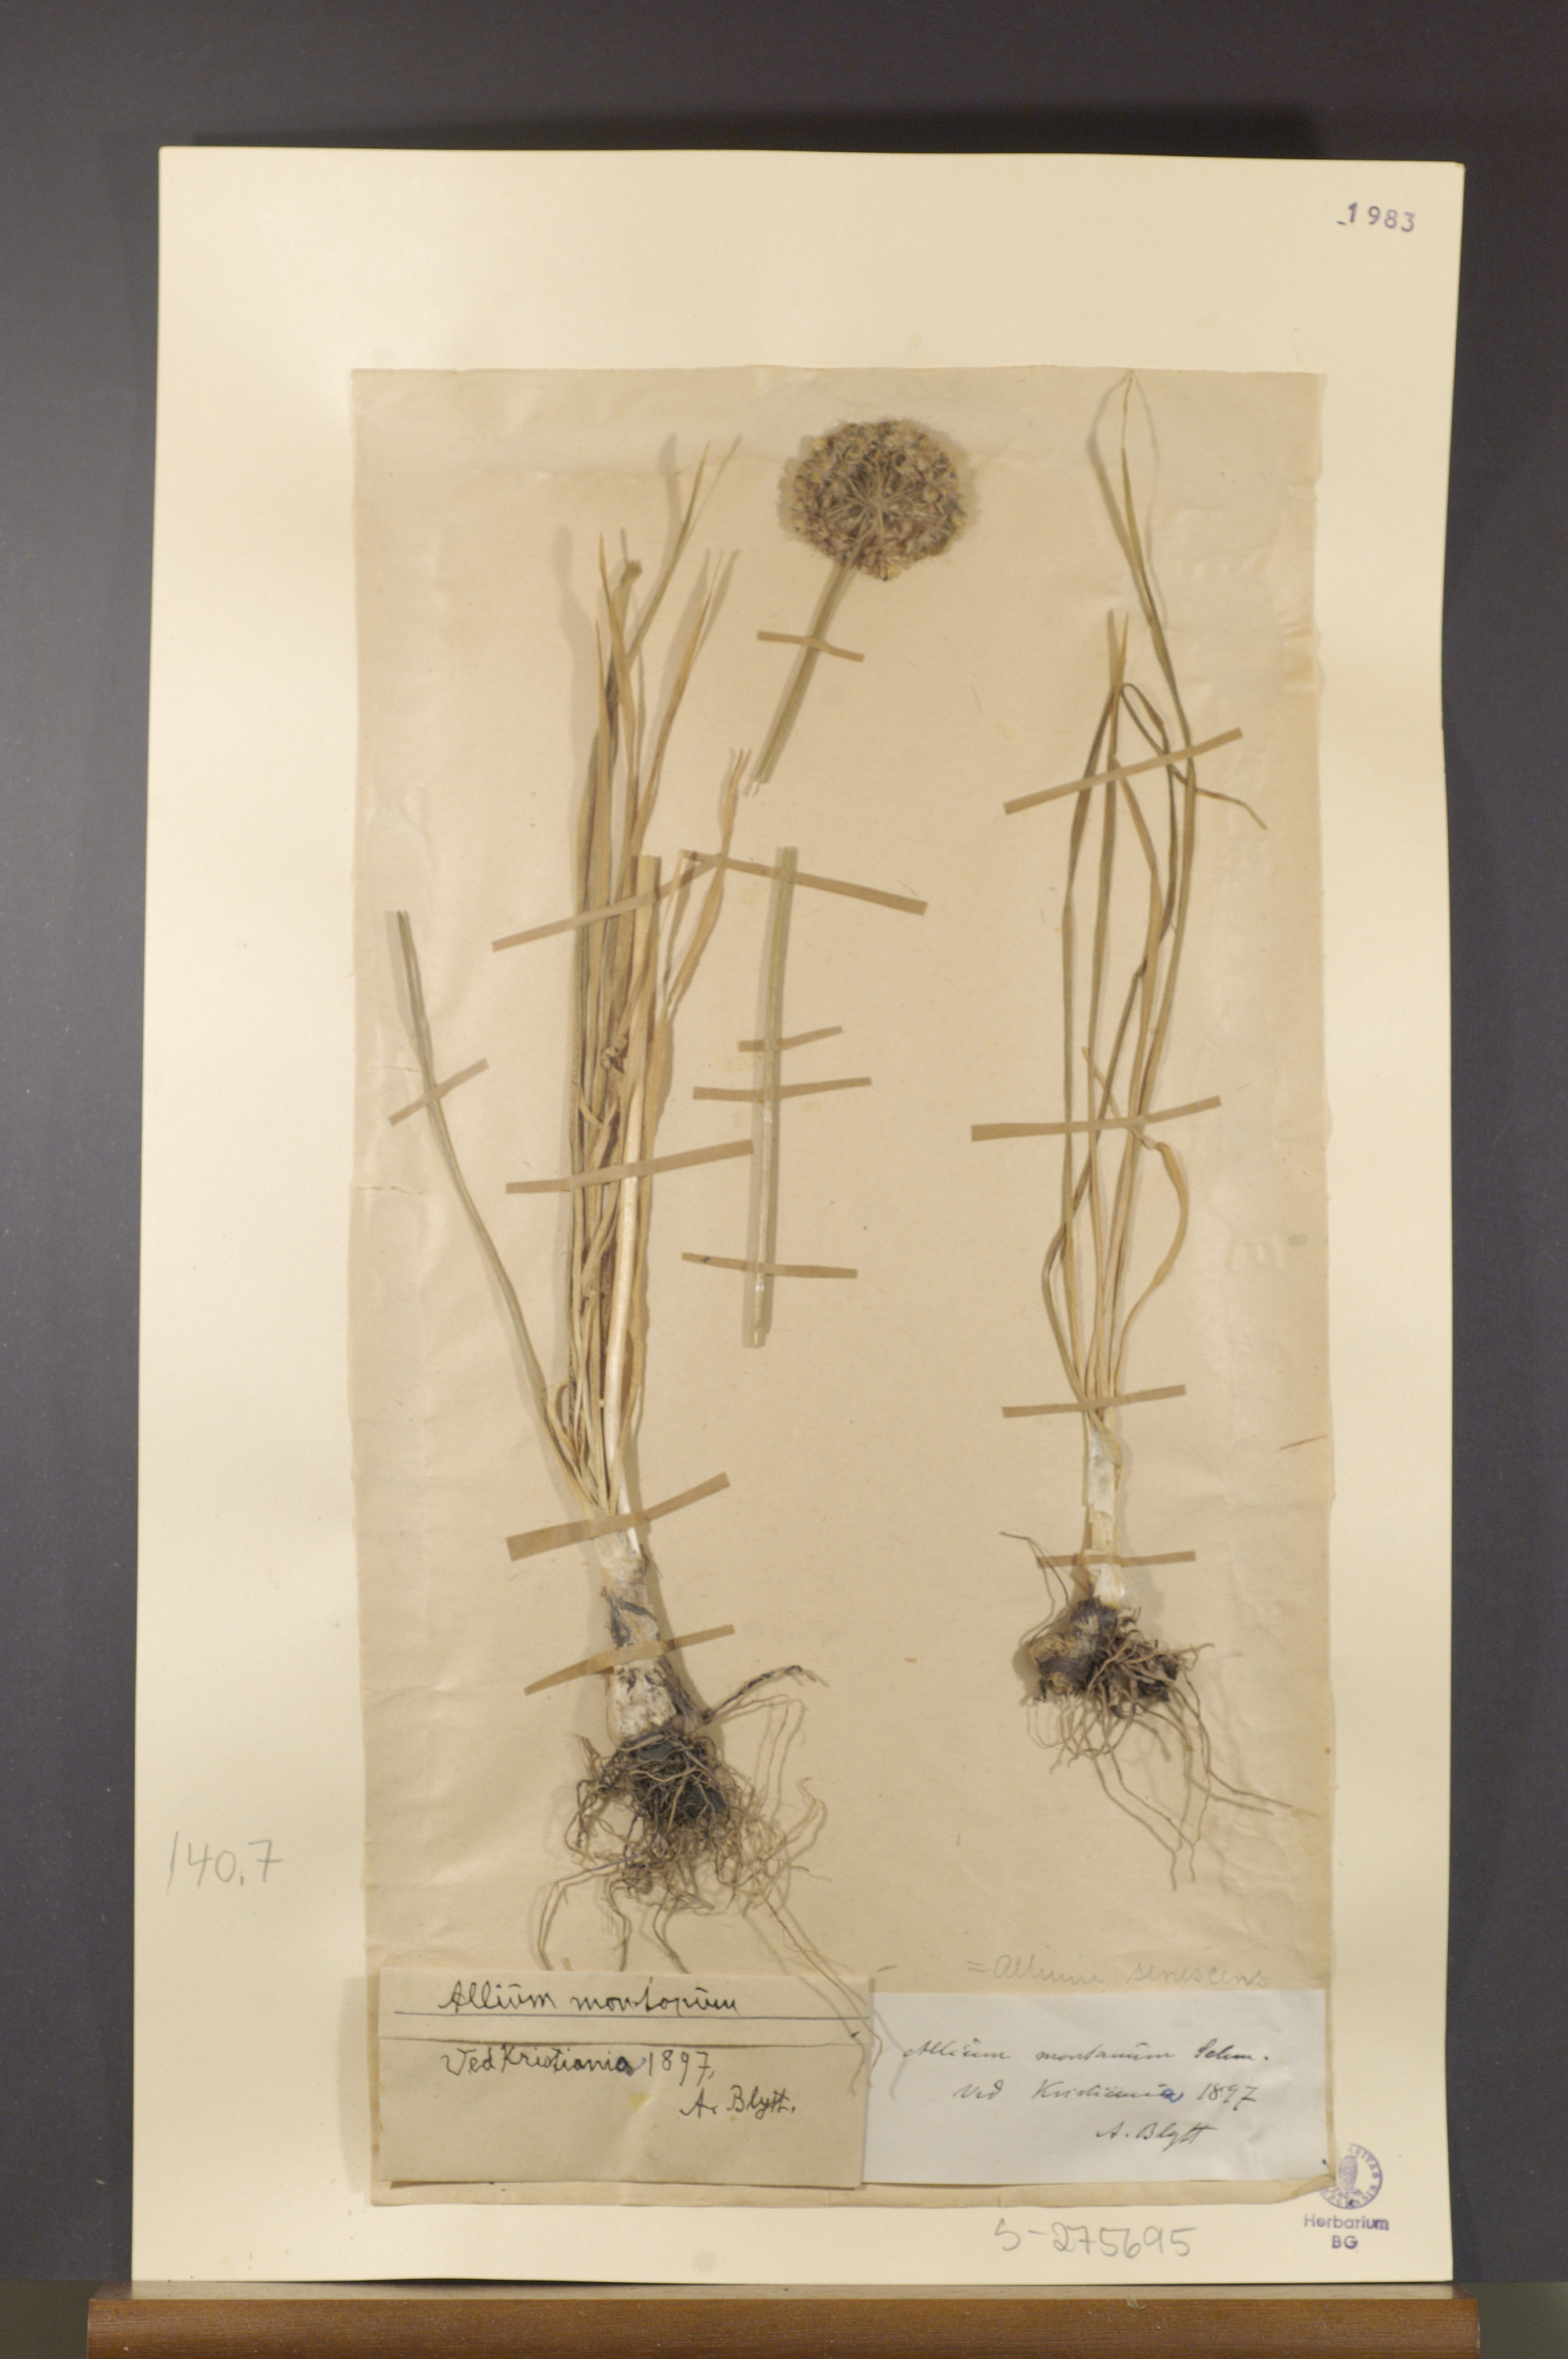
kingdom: Plantae
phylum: Tracheophyta
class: Liliopsida
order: Asparagales
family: Amaryllidaceae
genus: Allium
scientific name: Allium lusitanicum
